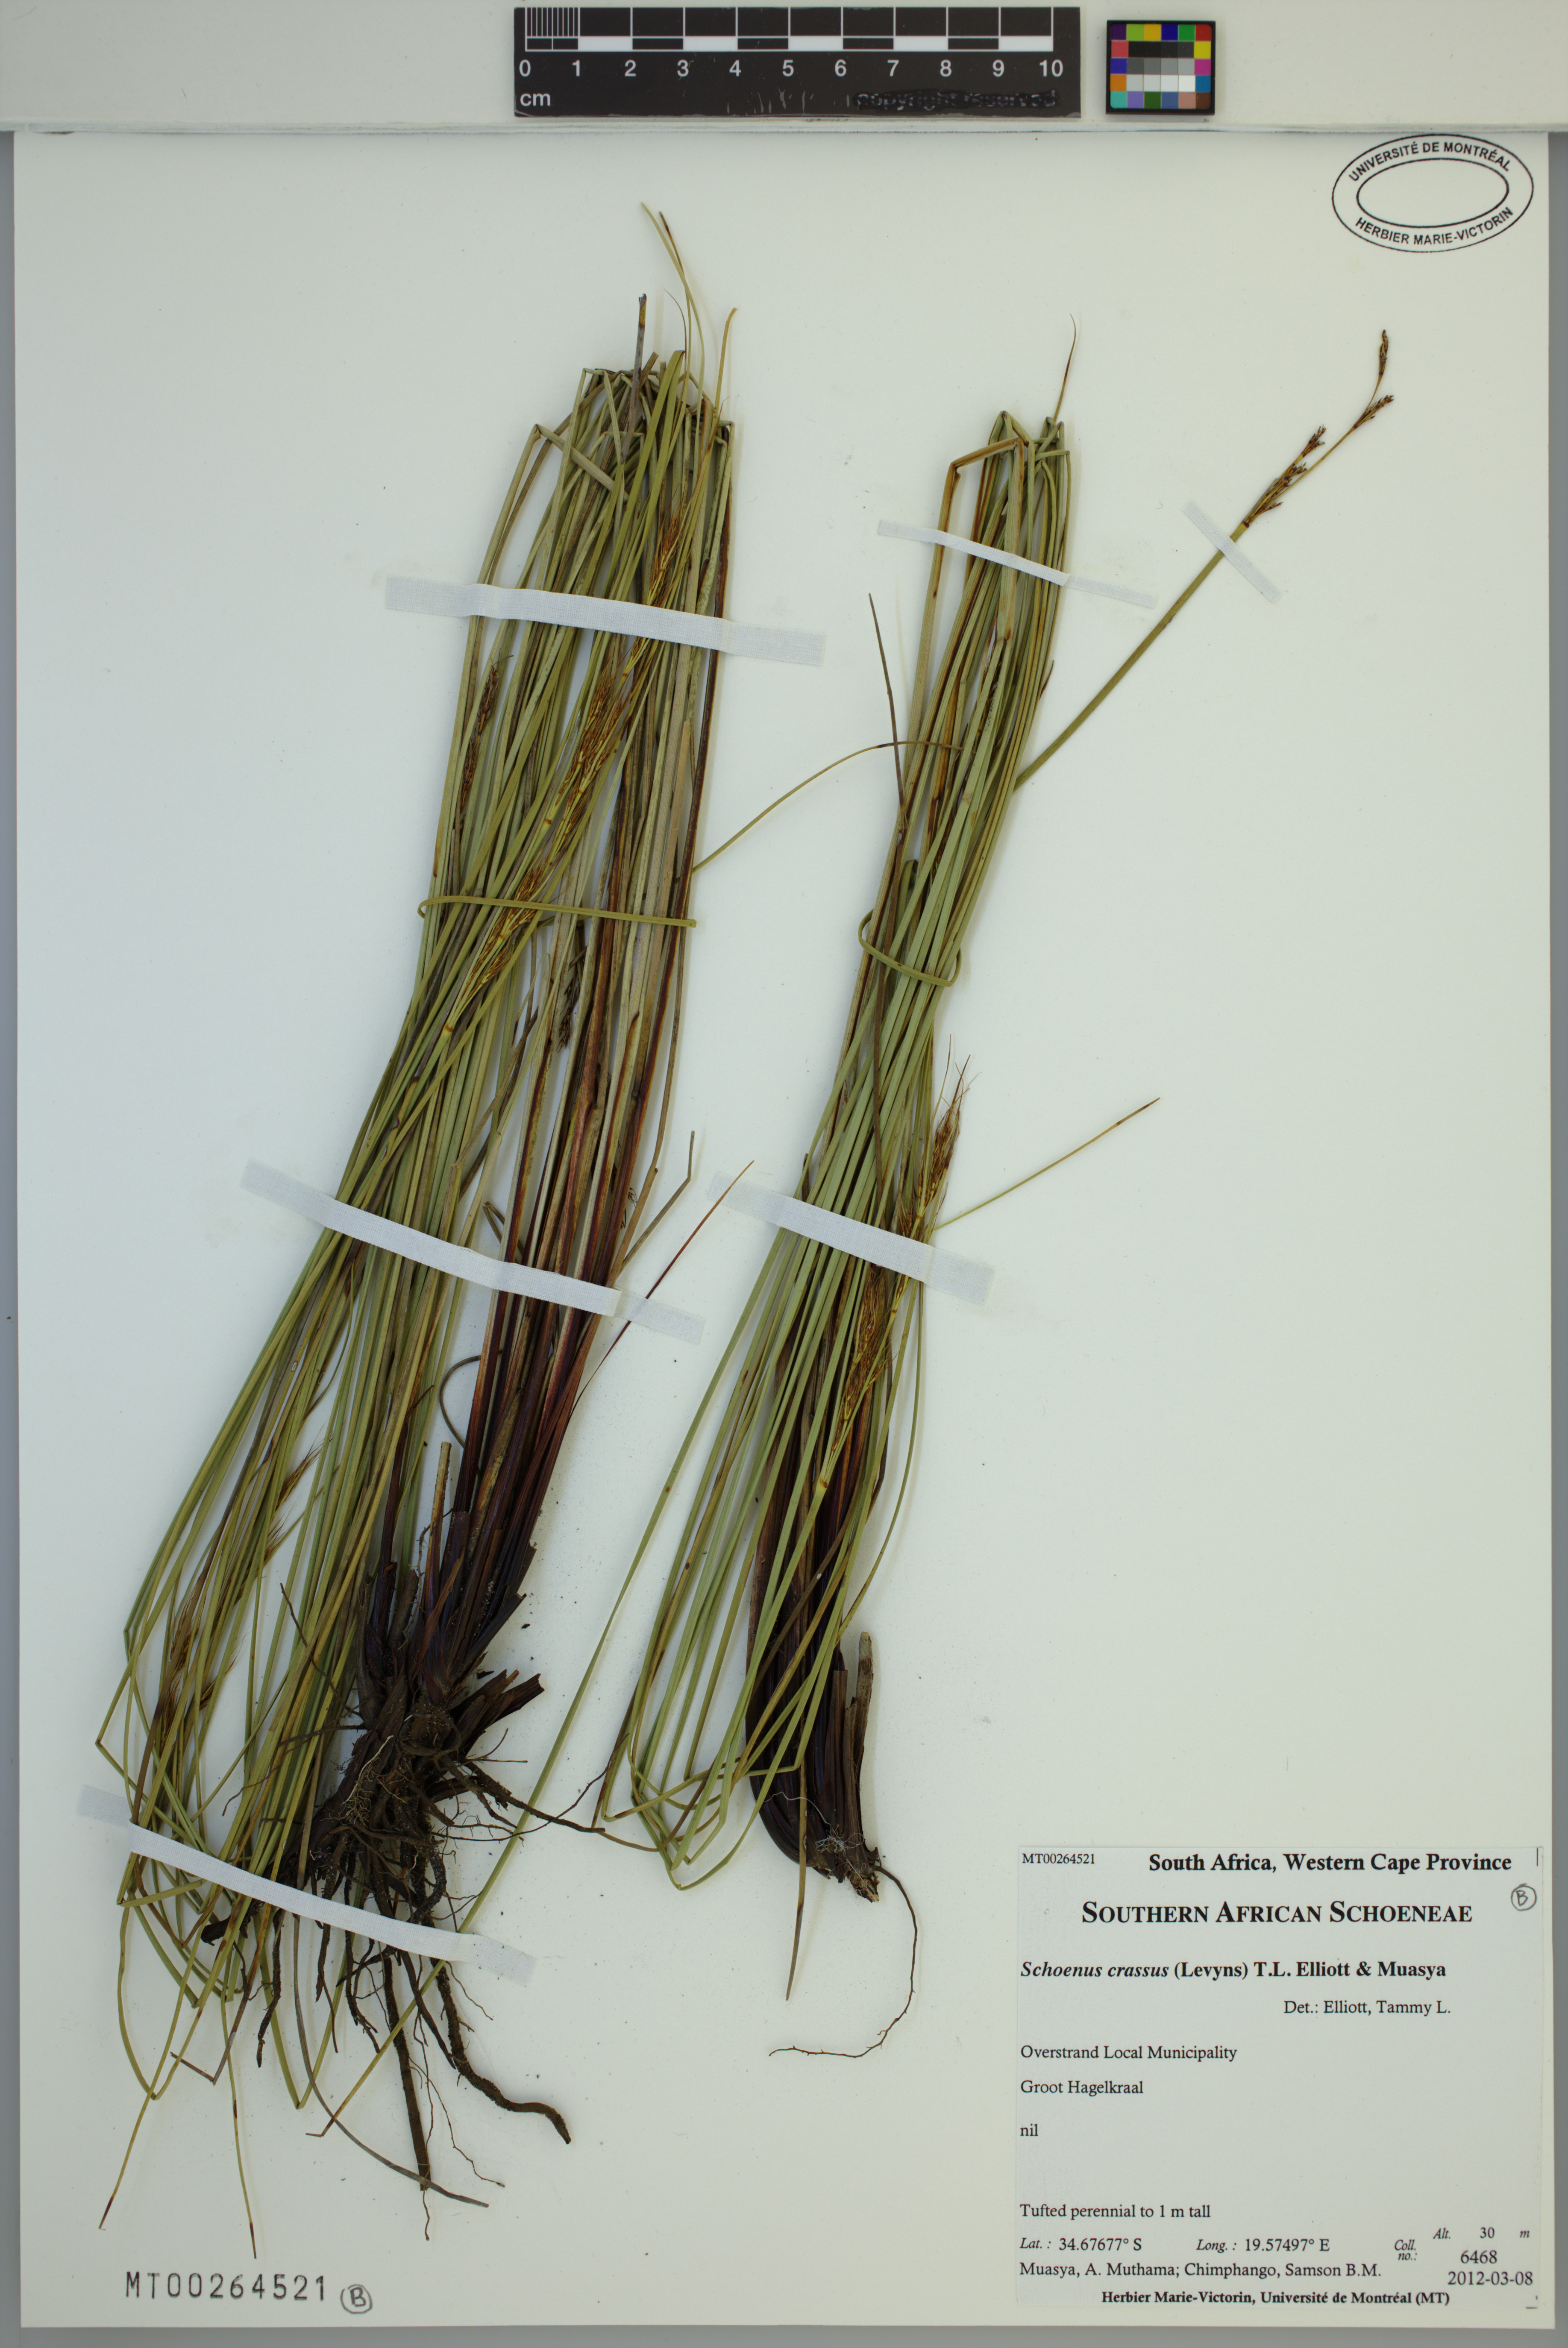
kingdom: Plantae
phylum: Tracheophyta
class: Liliopsida
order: Poales
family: Cyperaceae
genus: Schoenus
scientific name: Schoenus crassus
